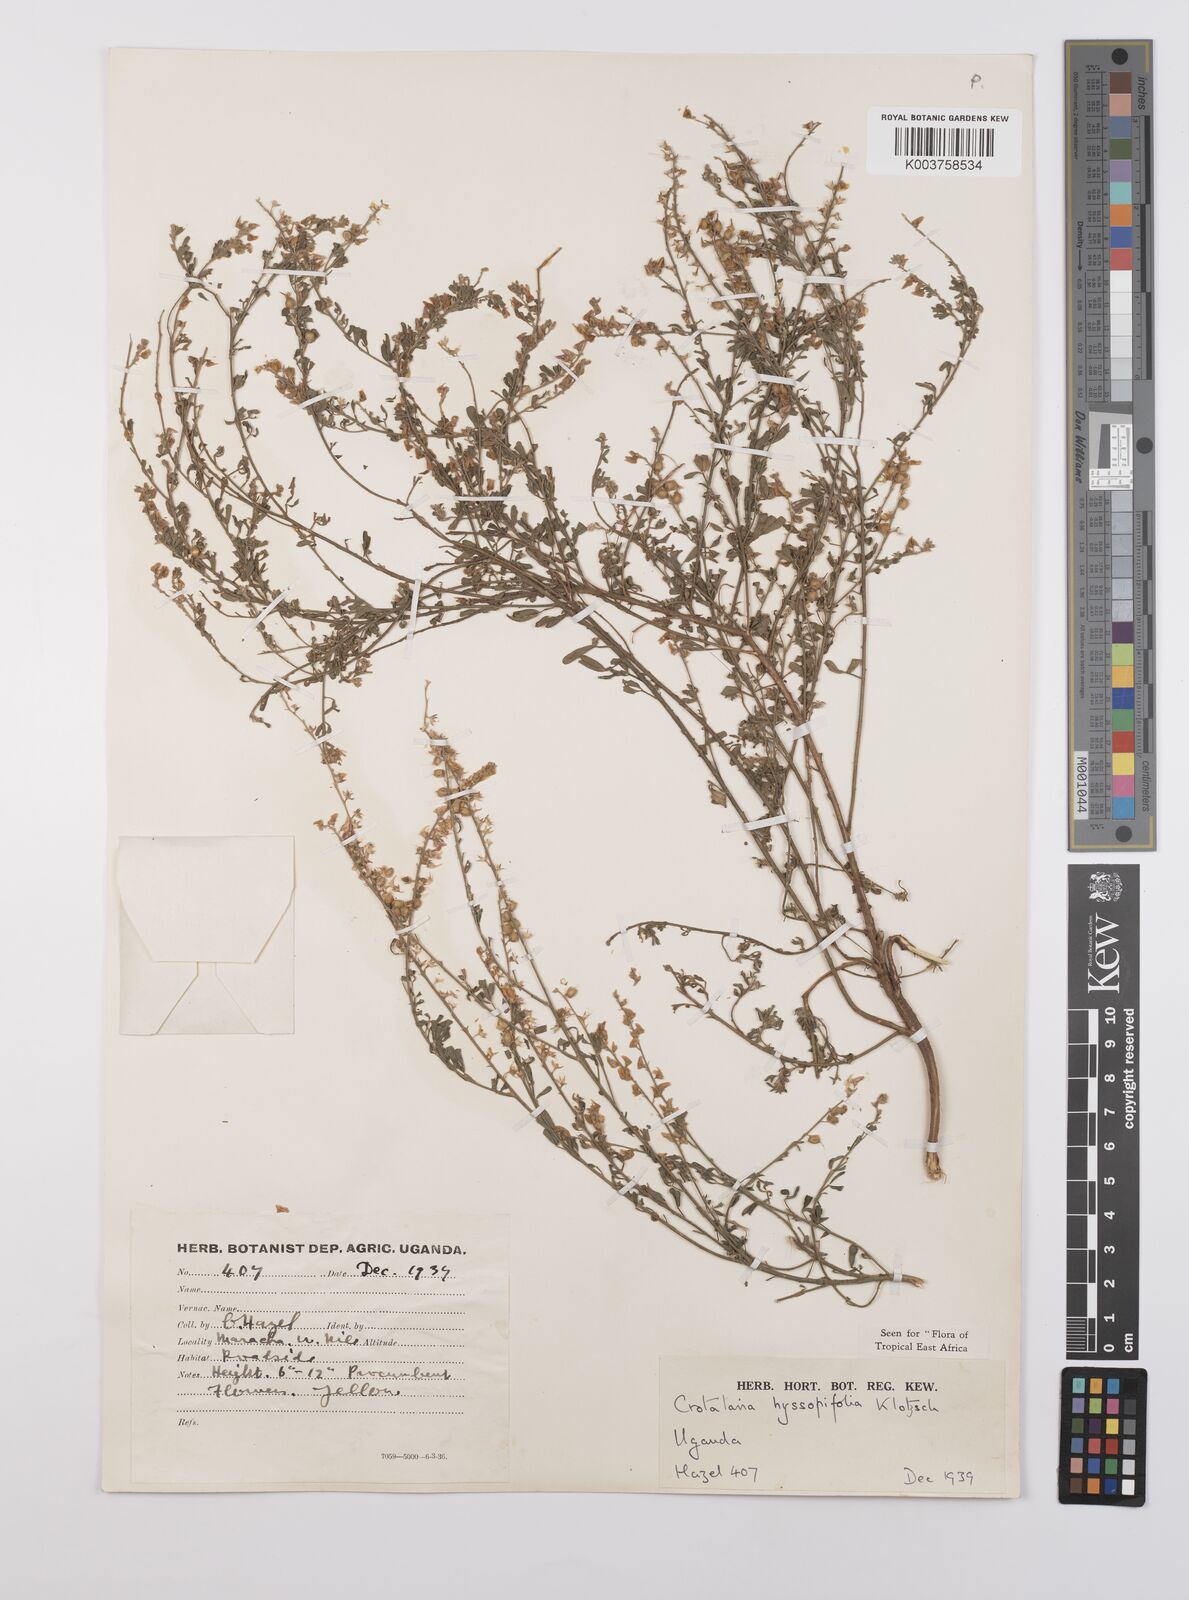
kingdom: Plantae
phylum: Tracheophyta
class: Magnoliopsida
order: Fabales
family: Fabaceae
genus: Crotalaria
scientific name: Crotalaria hyssopifolia
